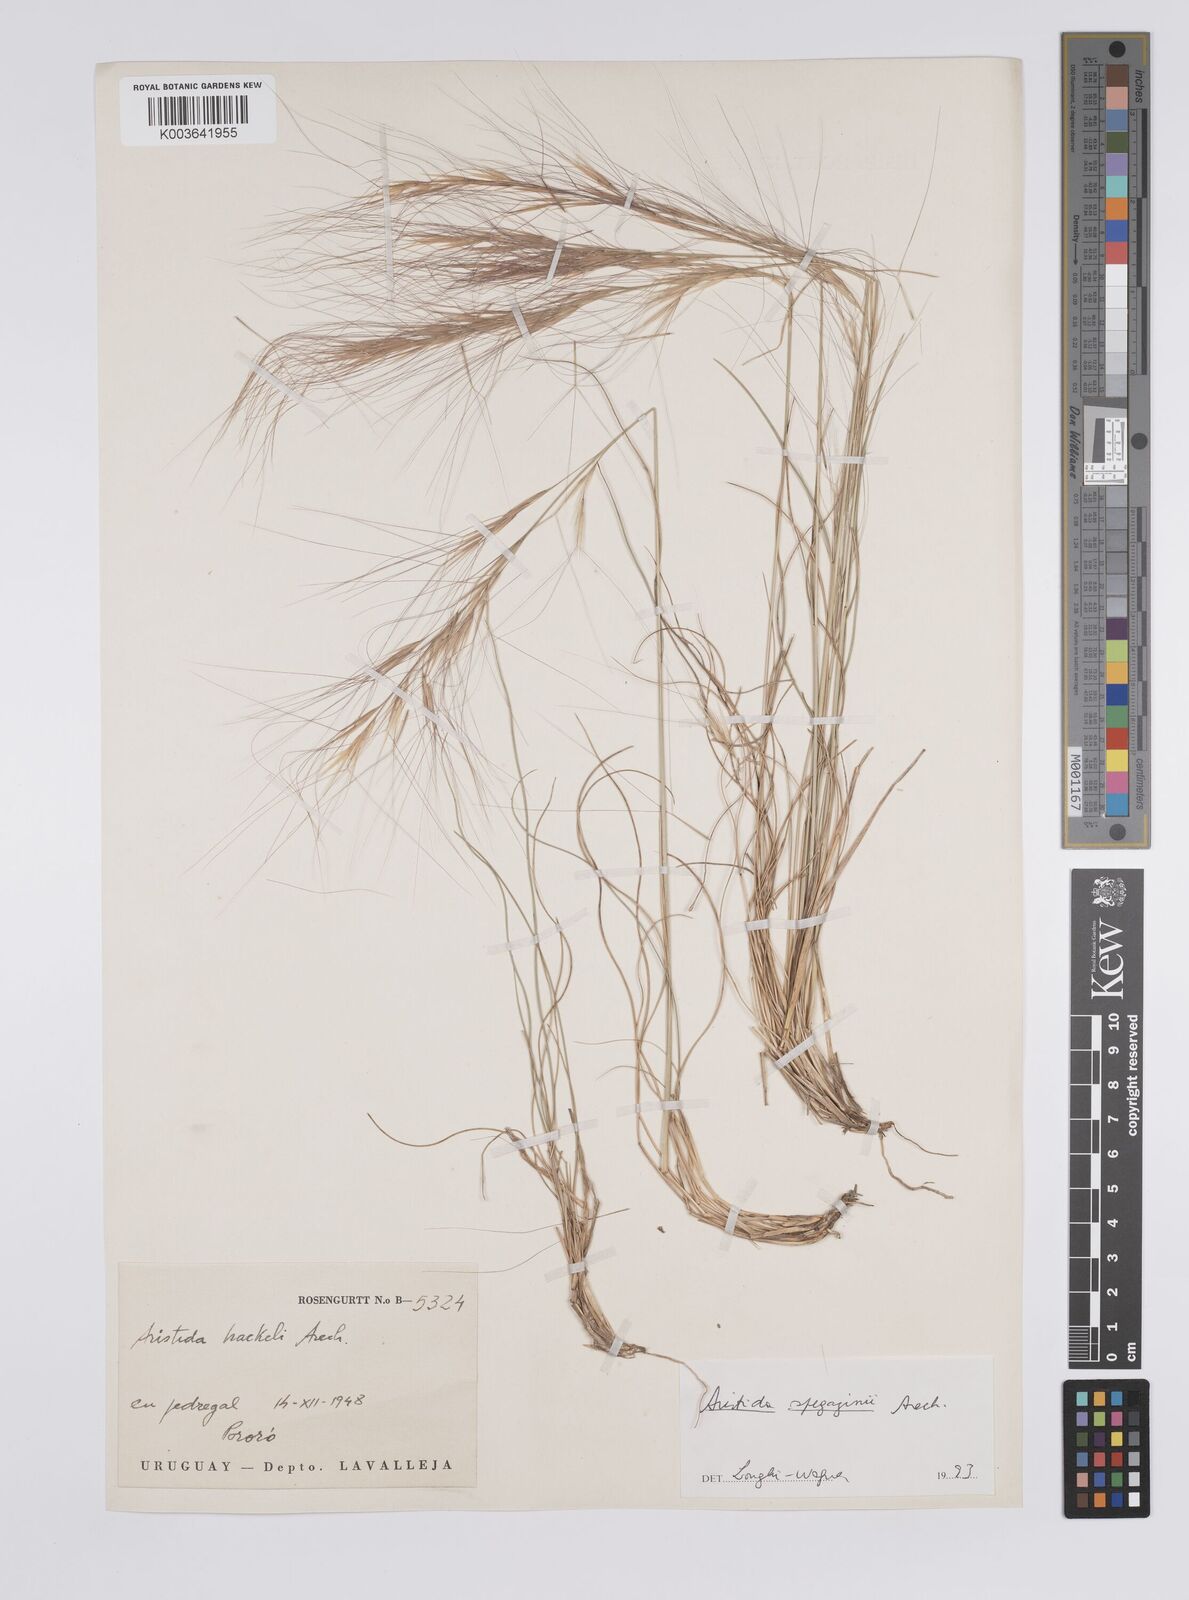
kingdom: Plantae
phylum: Tracheophyta
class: Liliopsida
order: Poales
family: Poaceae
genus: Aristida
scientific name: Aristida spegazzinii
